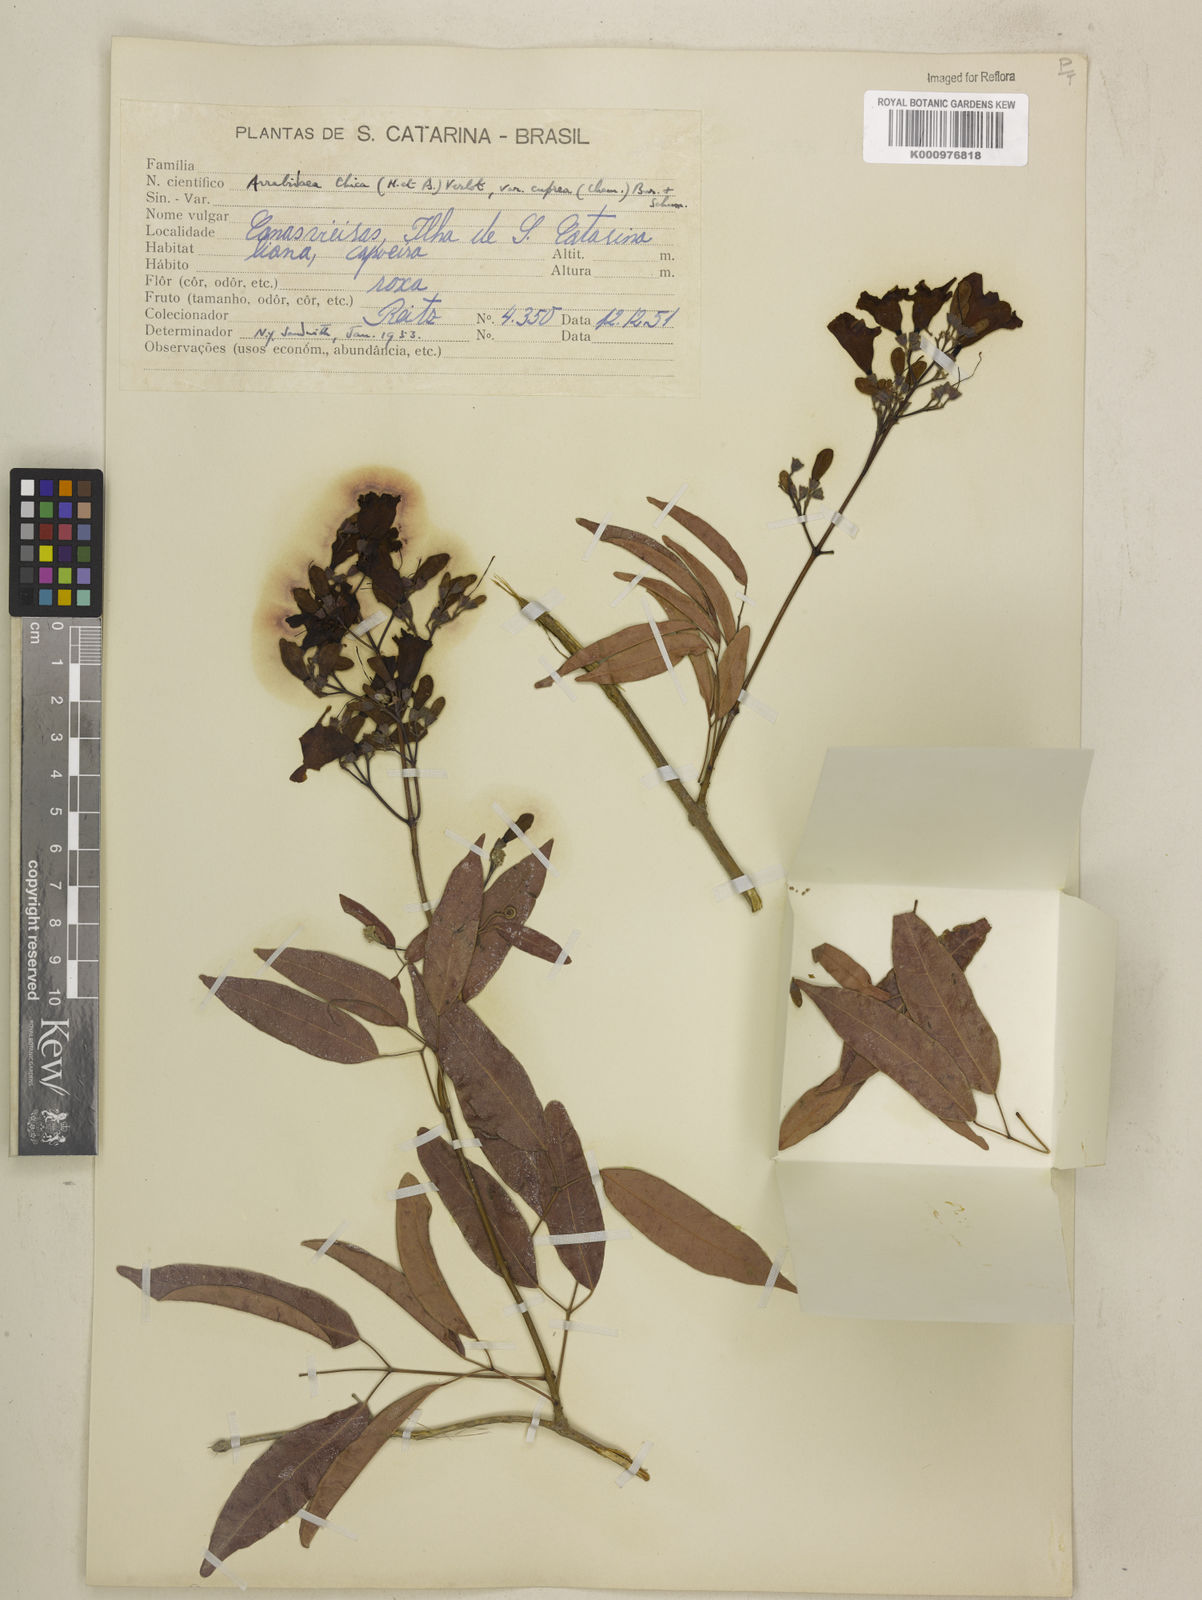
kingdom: Plantae
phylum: Tracheophyta
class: Magnoliopsida
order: Lamiales
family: Bignoniaceae
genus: Fridericia
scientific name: Fridericia chica
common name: Cricketvine
